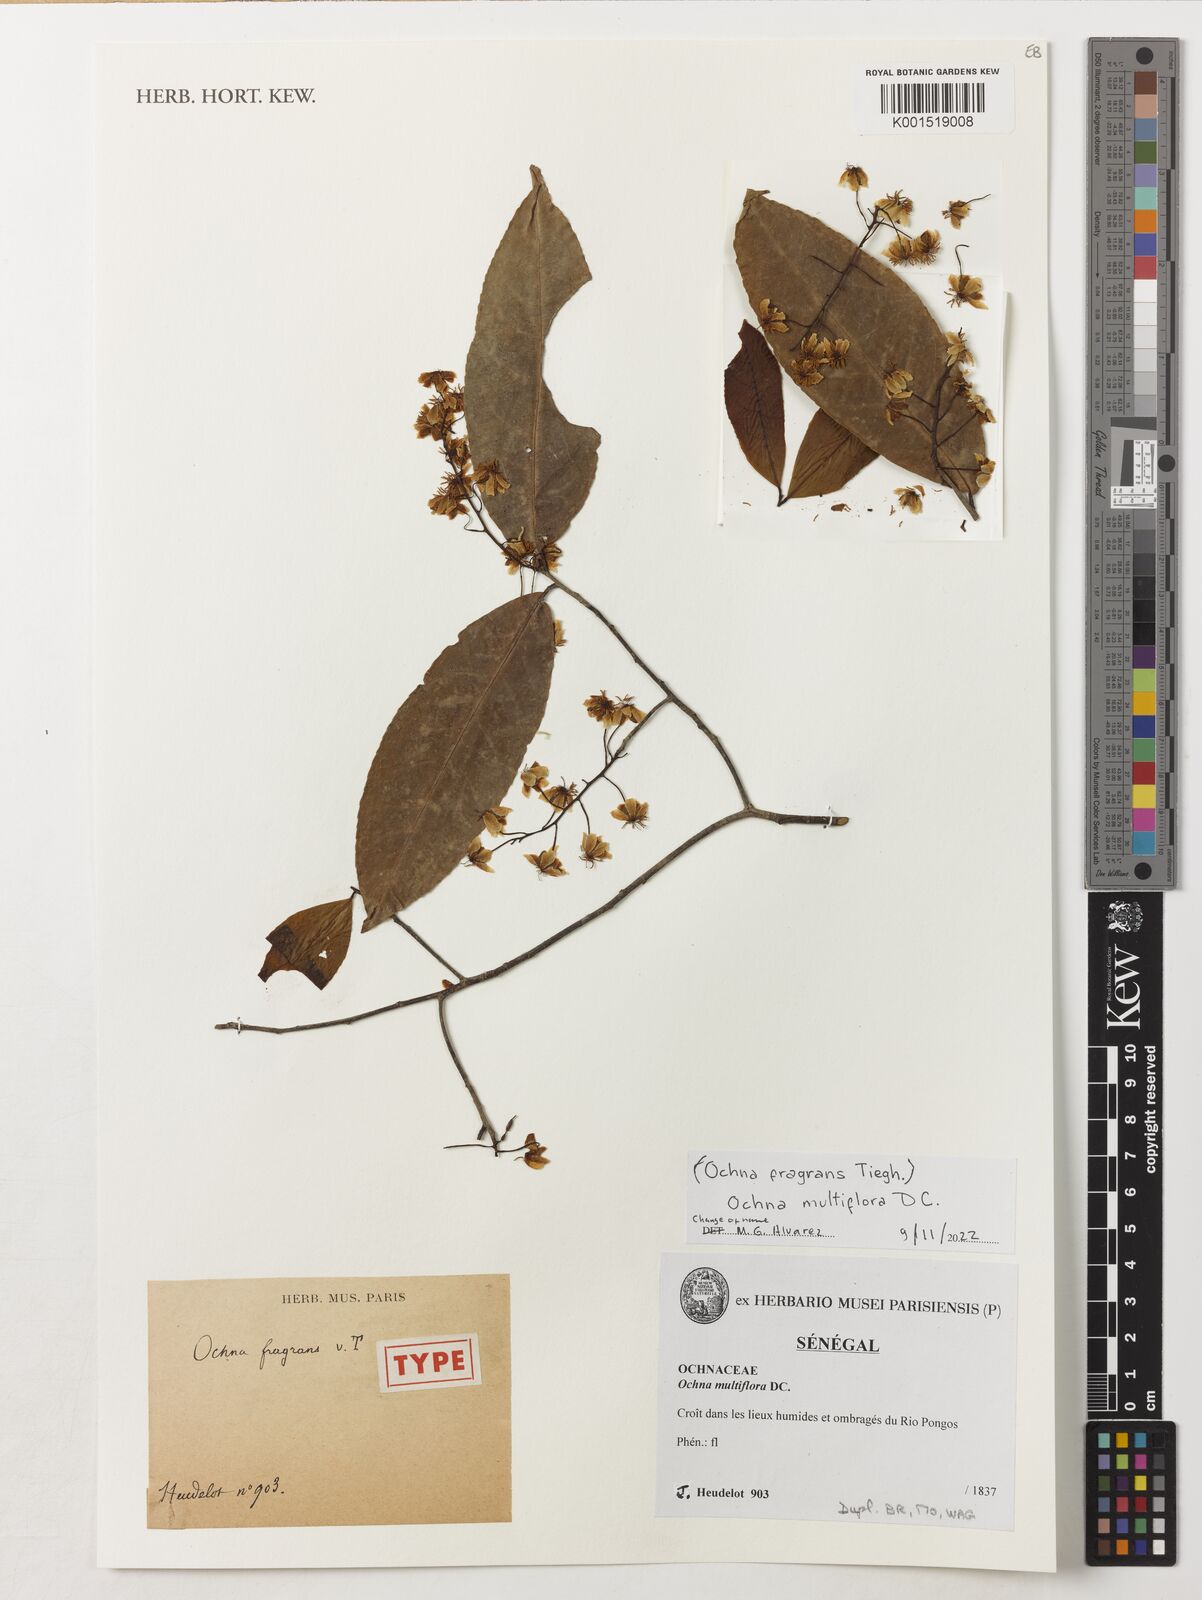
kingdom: Plantae
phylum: Tracheophyta
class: Magnoliopsida
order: Malpighiales
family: Ochnaceae
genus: Ouratea
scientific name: Ouratea multiflora
